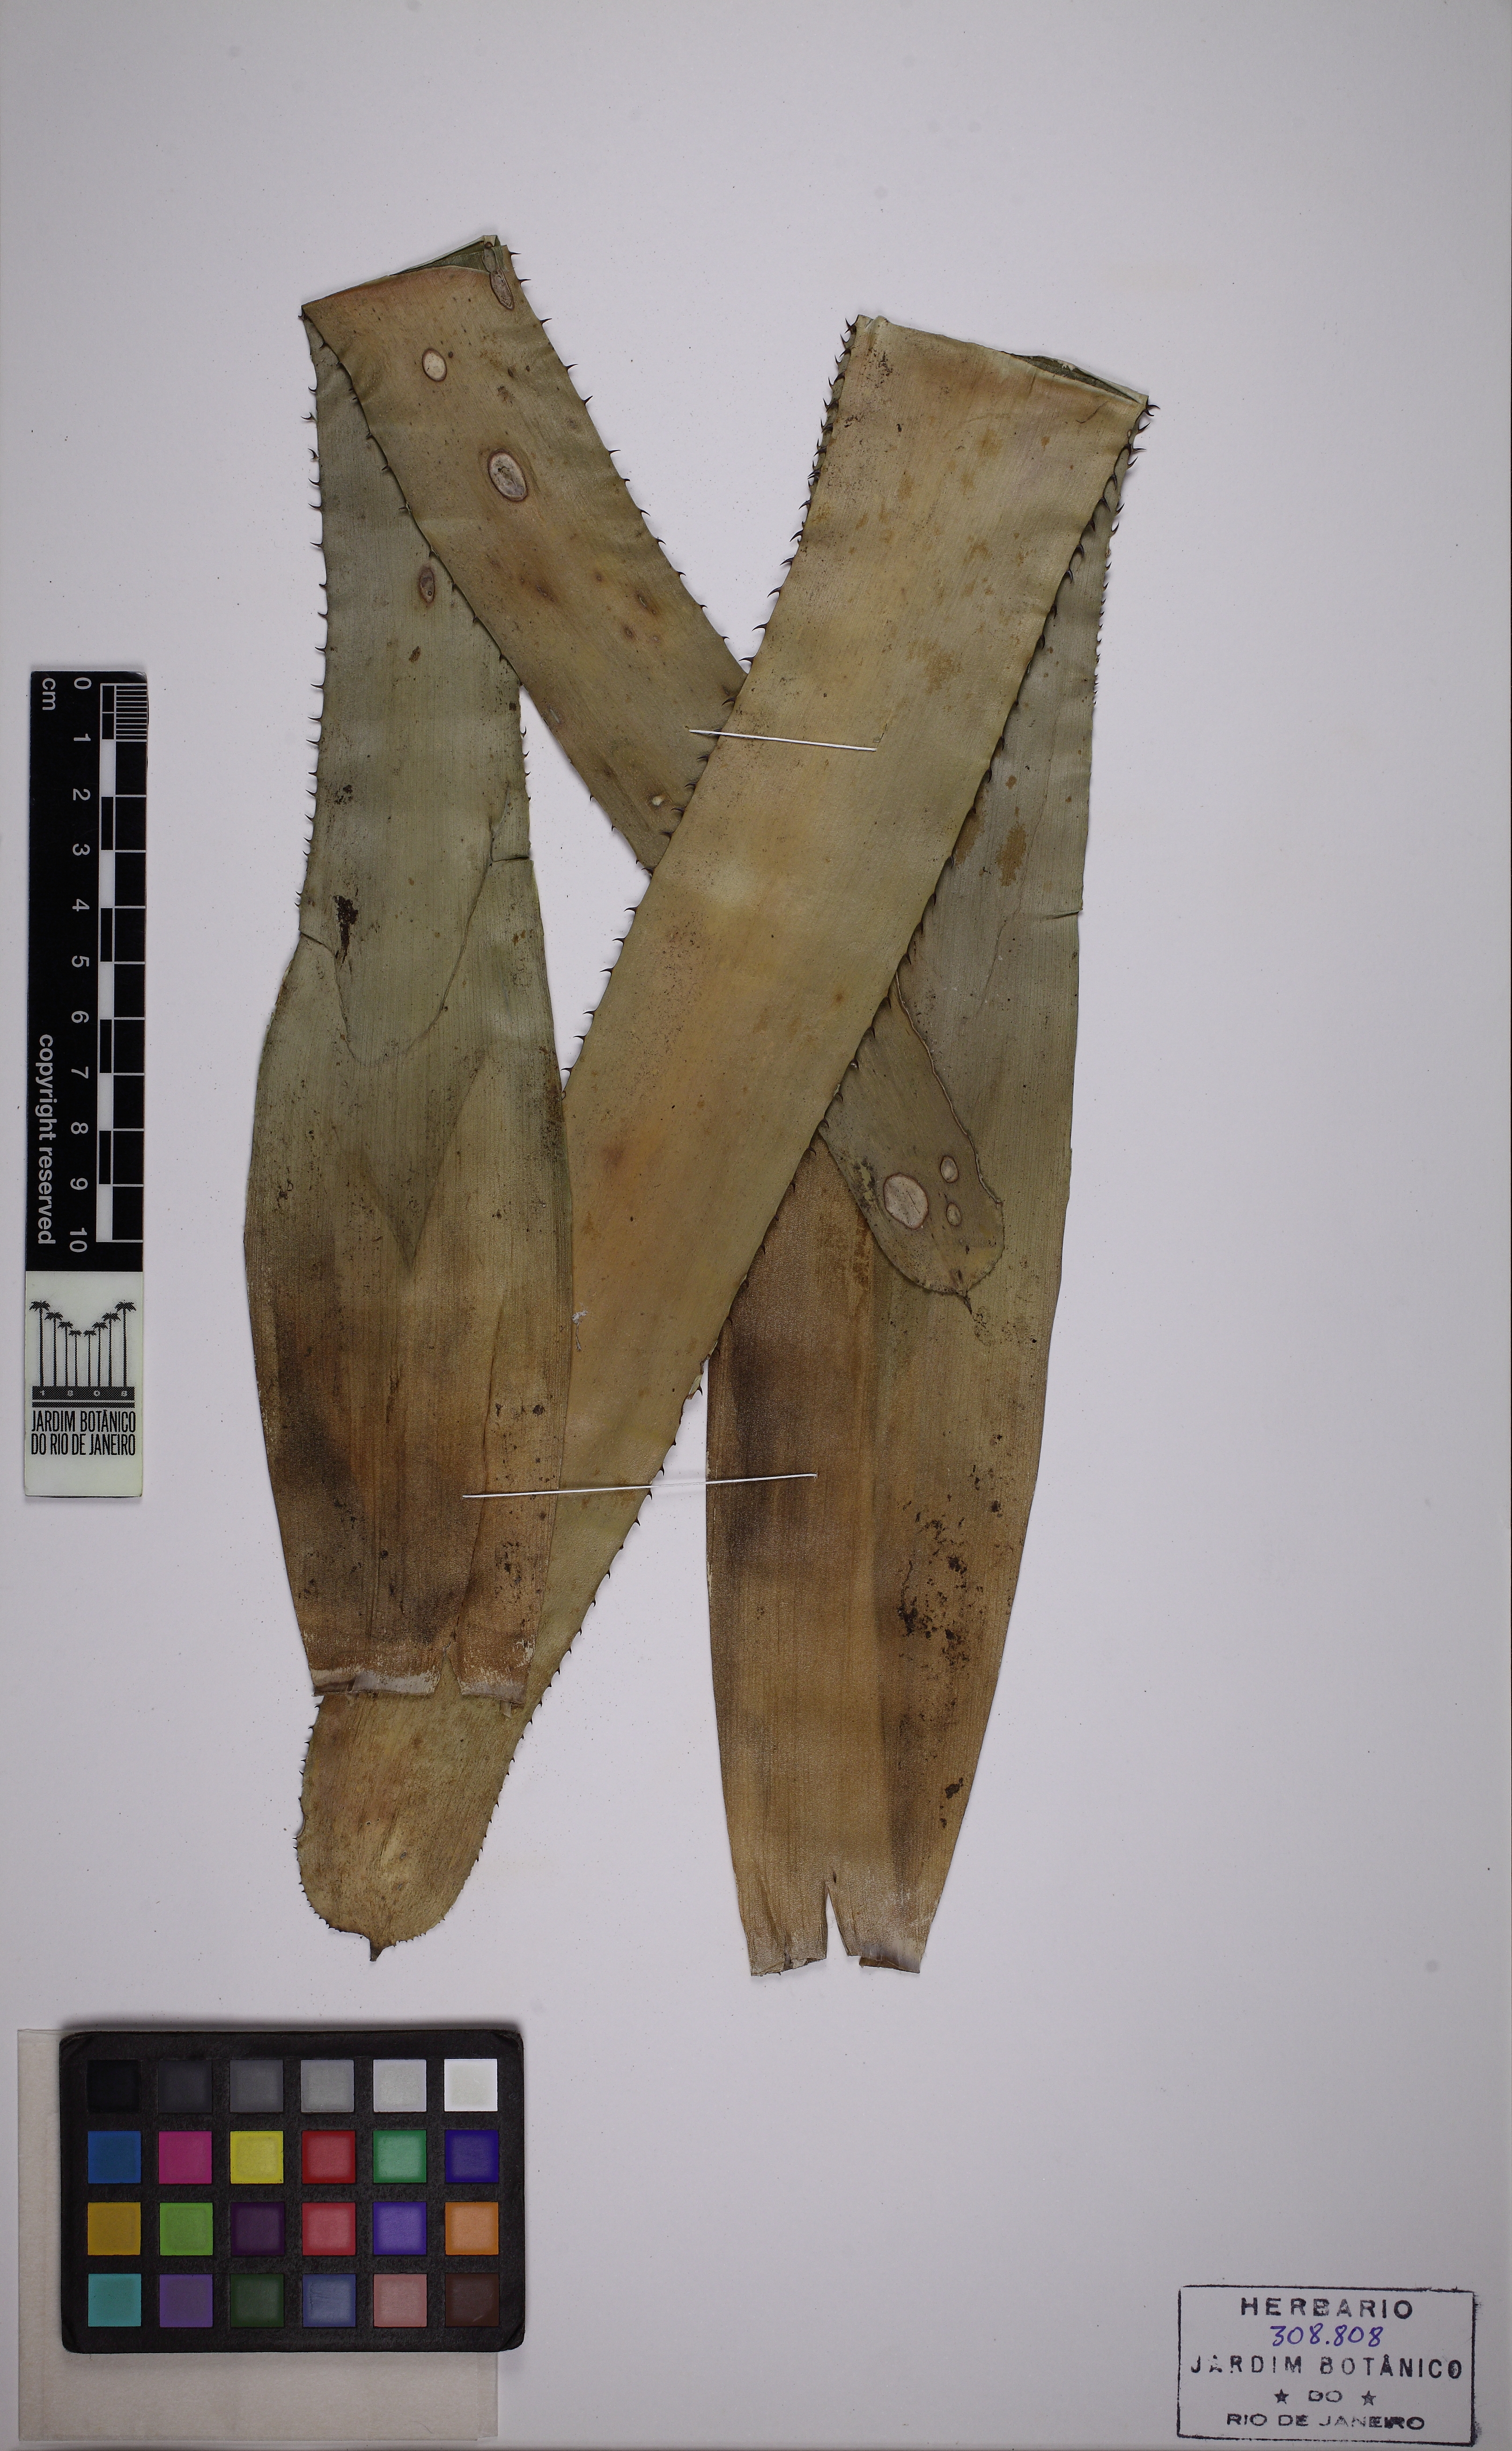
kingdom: Plantae
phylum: Tracheophyta
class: Liliopsida
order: Poales
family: Bromeliaceae
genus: Aechmea
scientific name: Aechmea nudicaulis
